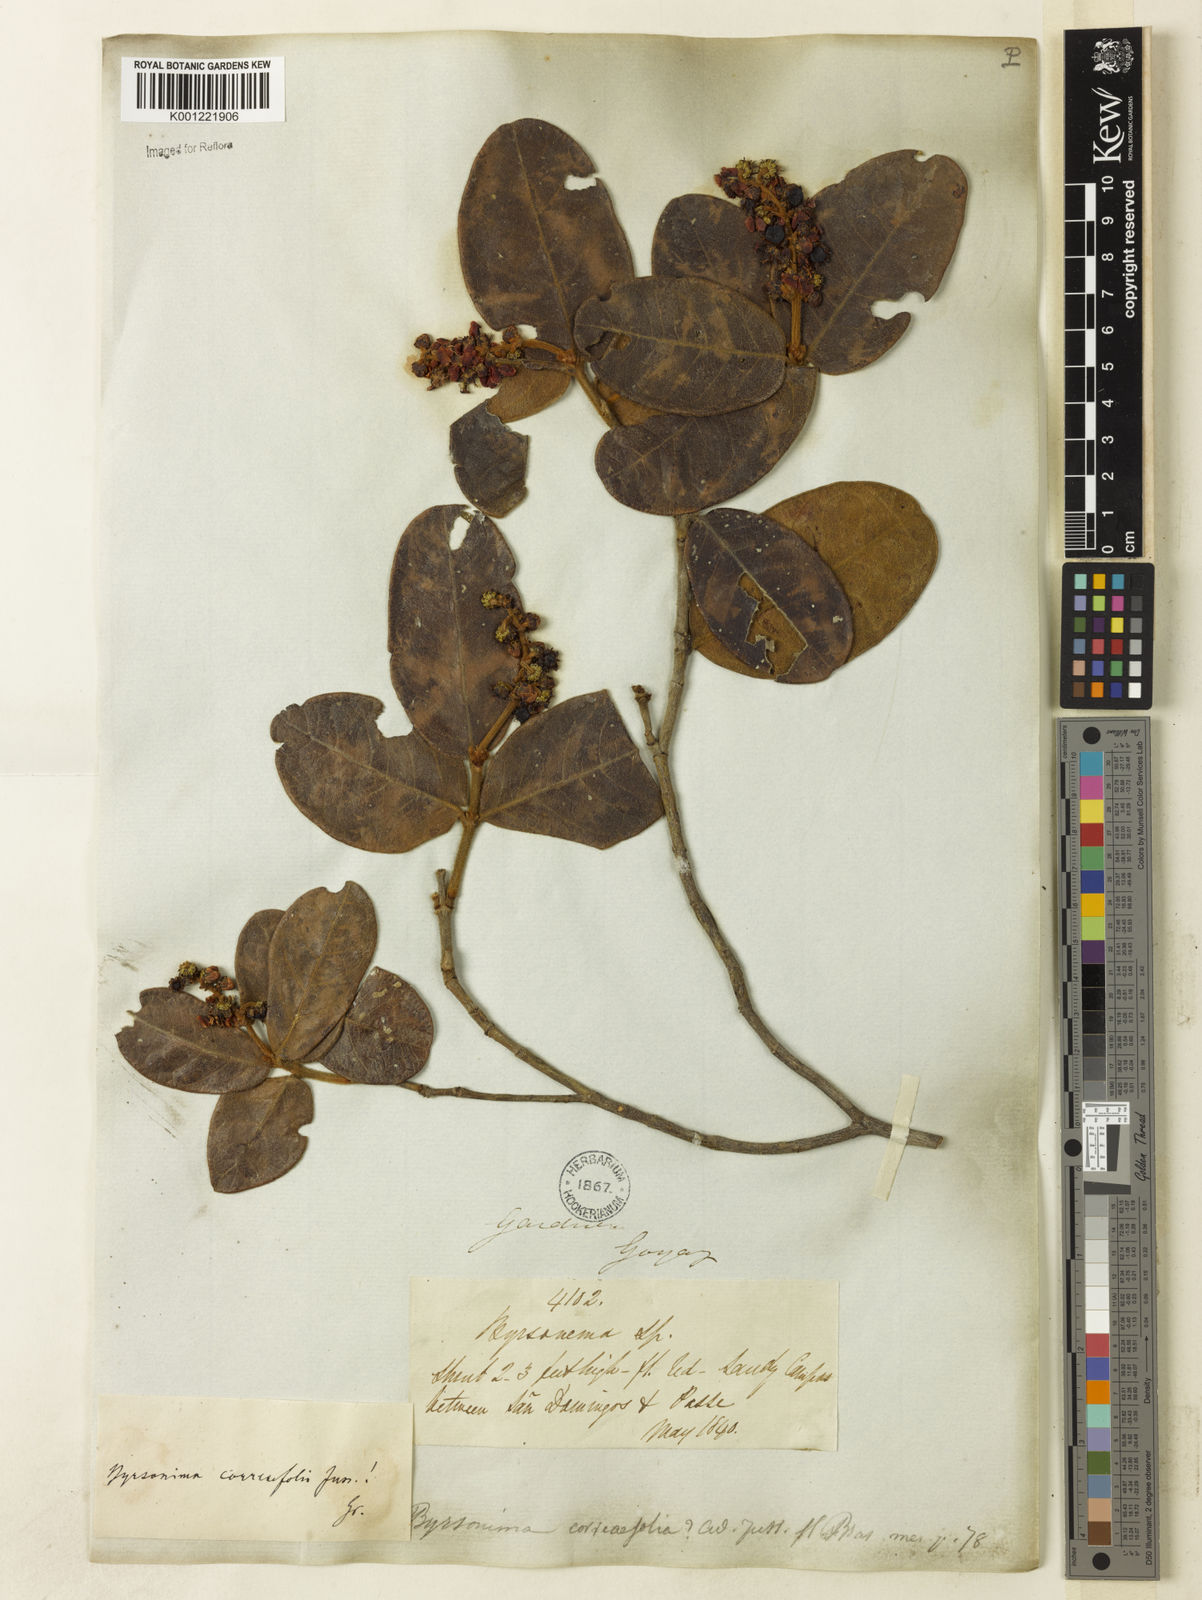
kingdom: Plantae
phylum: Tracheophyta
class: Magnoliopsida
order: Malpighiales
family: Malpighiaceae
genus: Byrsonima
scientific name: Byrsonima correifolia
